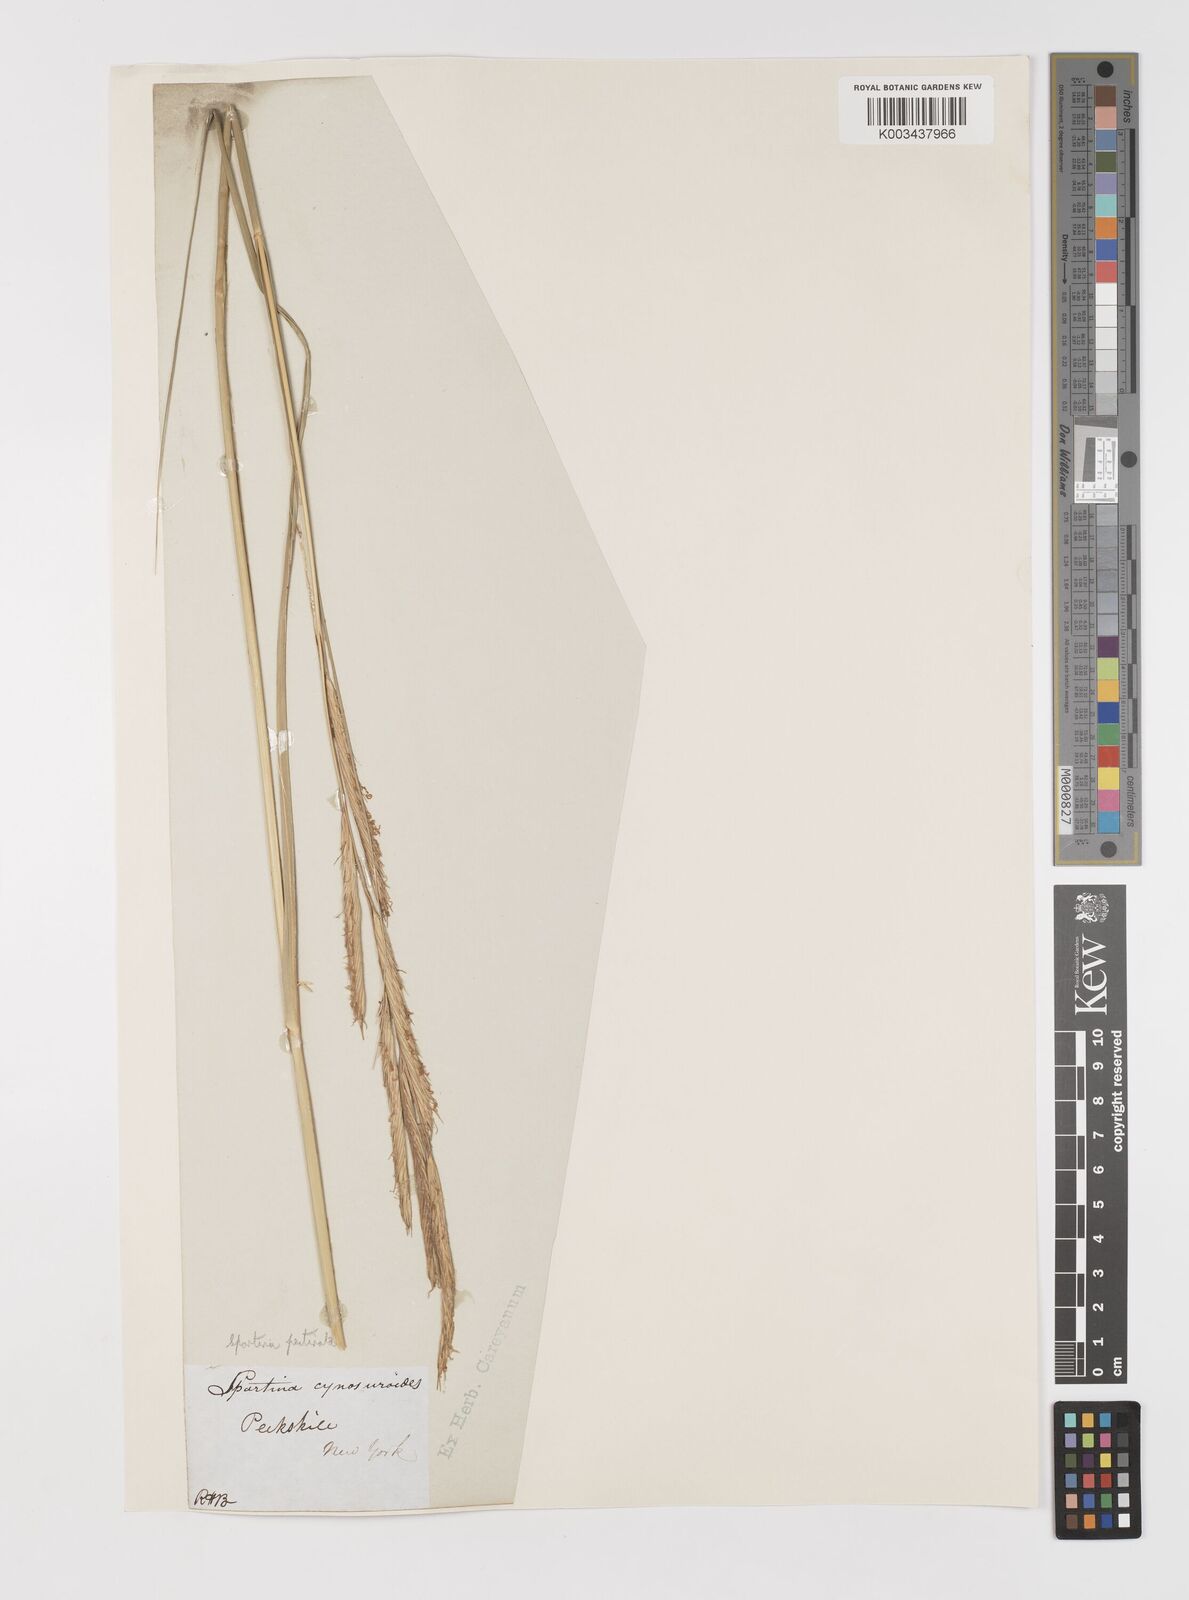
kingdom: Plantae
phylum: Tracheophyta
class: Liliopsida
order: Poales
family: Poaceae
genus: Sporobolus
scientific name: Sporobolus michauxianus
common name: Freshwater cordgrass
